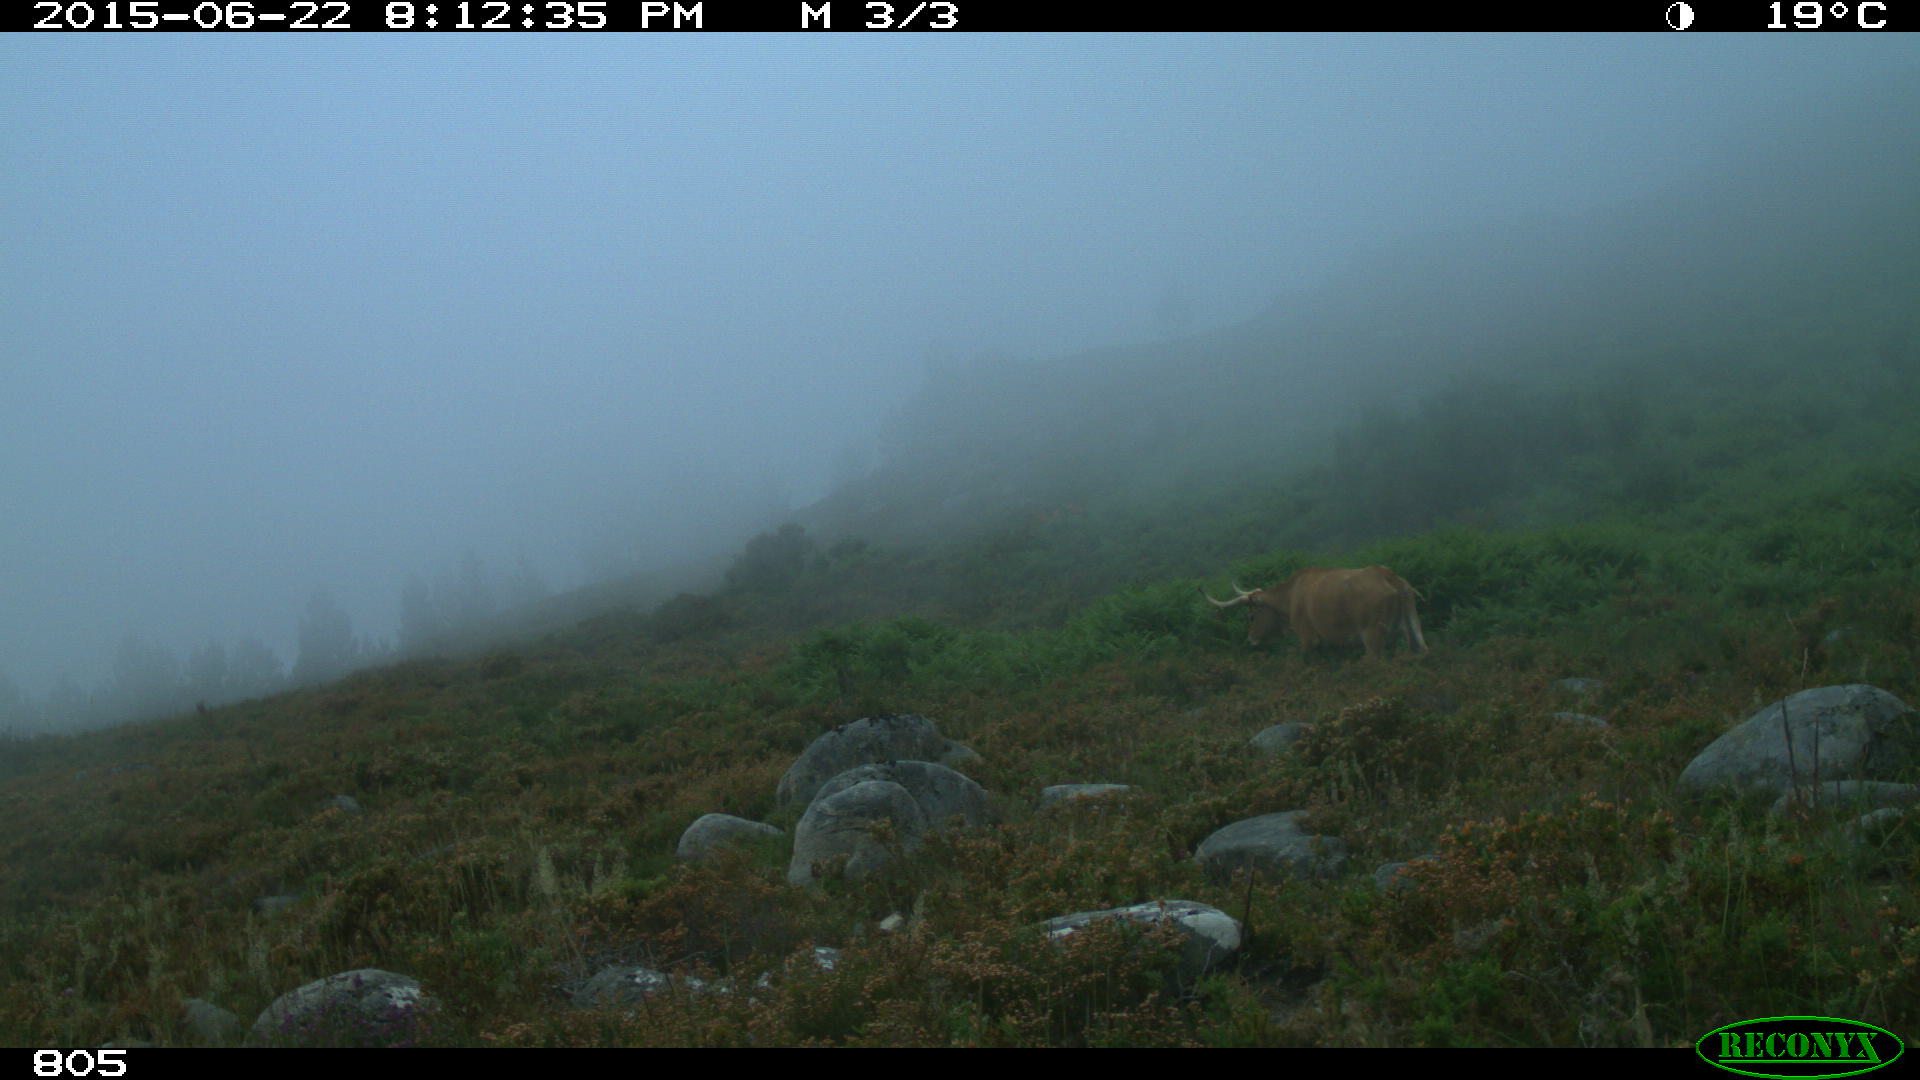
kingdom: Animalia
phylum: Chordata
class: Mammalia
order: Artiodactyla
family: Bovidae
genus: Bos
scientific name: Bos taurus
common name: Domesticated cattle
